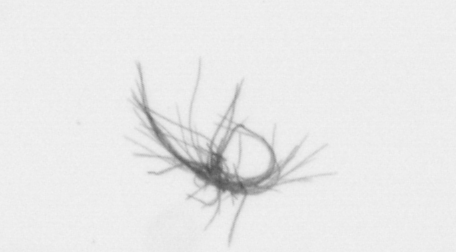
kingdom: Bacteria
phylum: Cyanobacteria
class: Cyanobacteriia
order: Cyanobacteriales
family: Microcoleaceae
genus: Trichodesmium
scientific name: Trichodesmium
